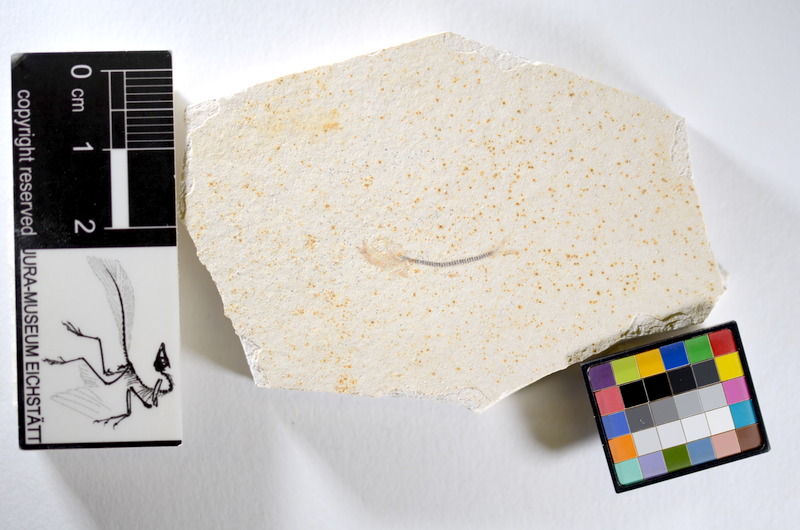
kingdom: Animalia
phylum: Chordata
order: Salmoniformes
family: Orthogonikleithridae
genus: Orthogonikleithrus
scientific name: Orthogonikleithrus hoelli
